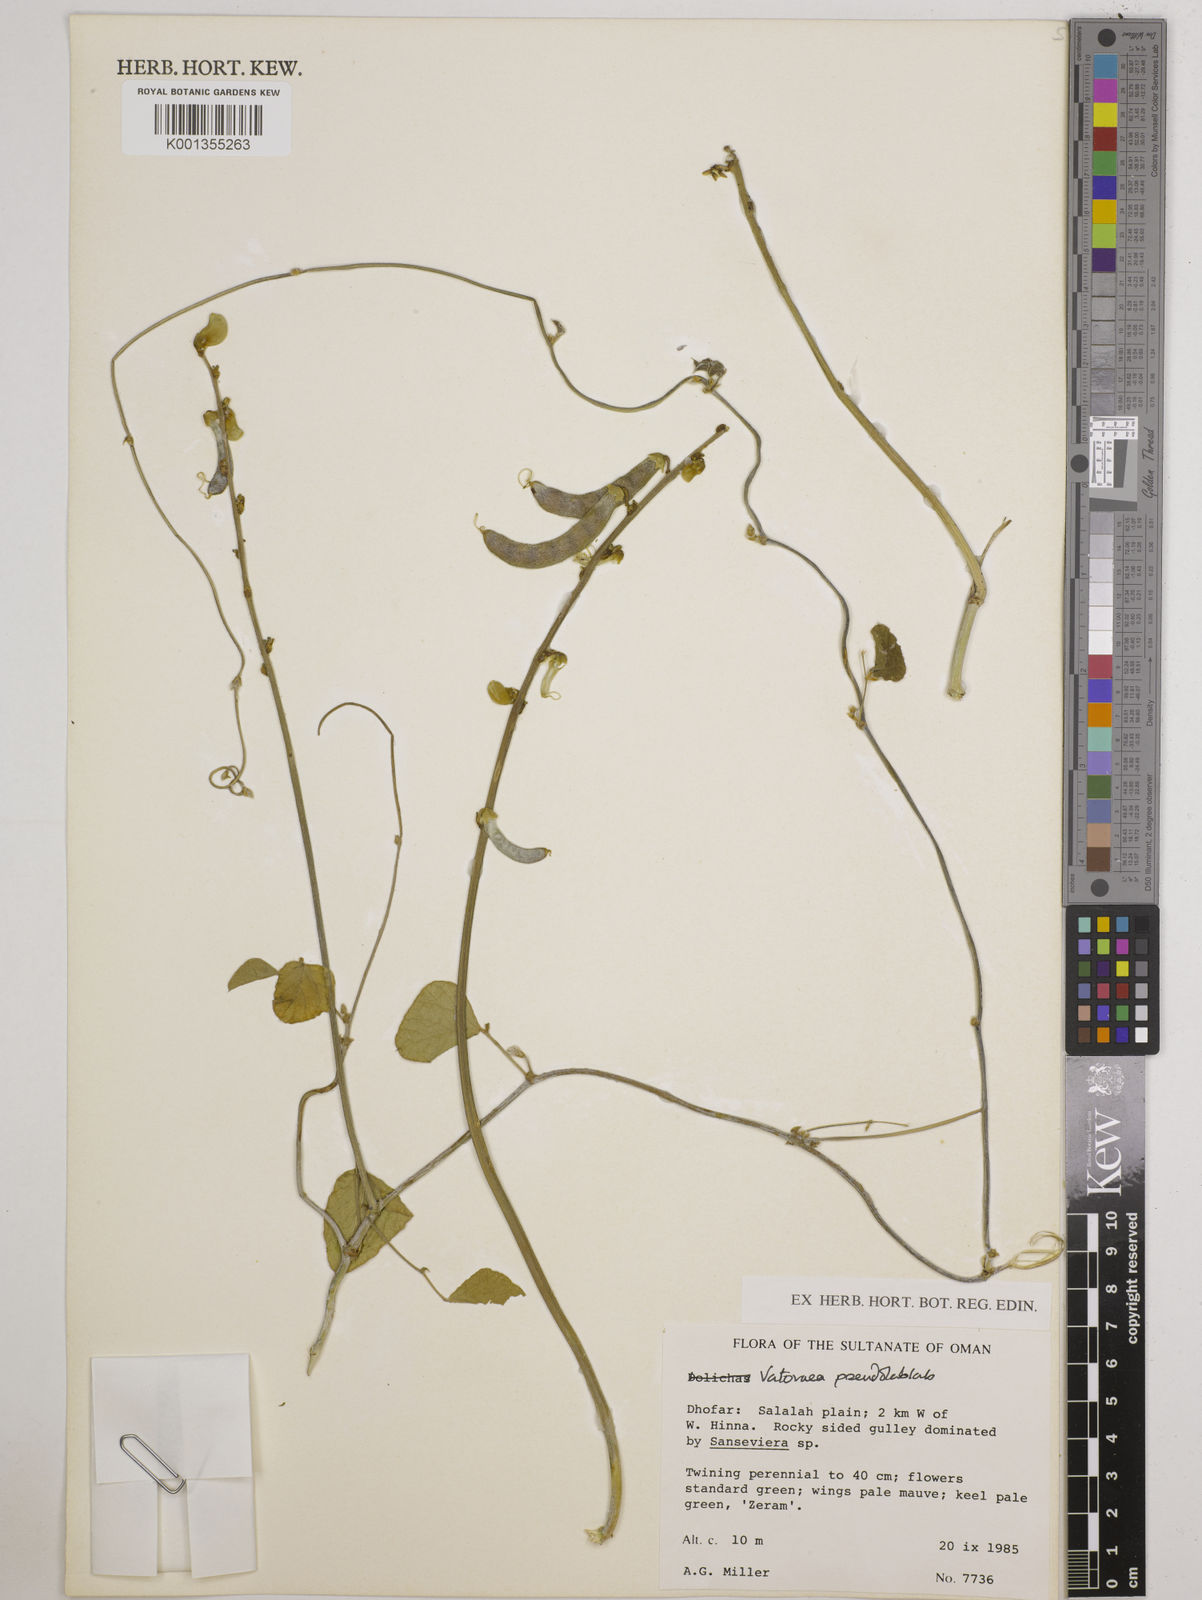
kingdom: Plantae
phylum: Tracheophyta
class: Magnoliopsida
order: Fabales
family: Fabaceae
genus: Vatovaea
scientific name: Vatovaea pseudolablab
